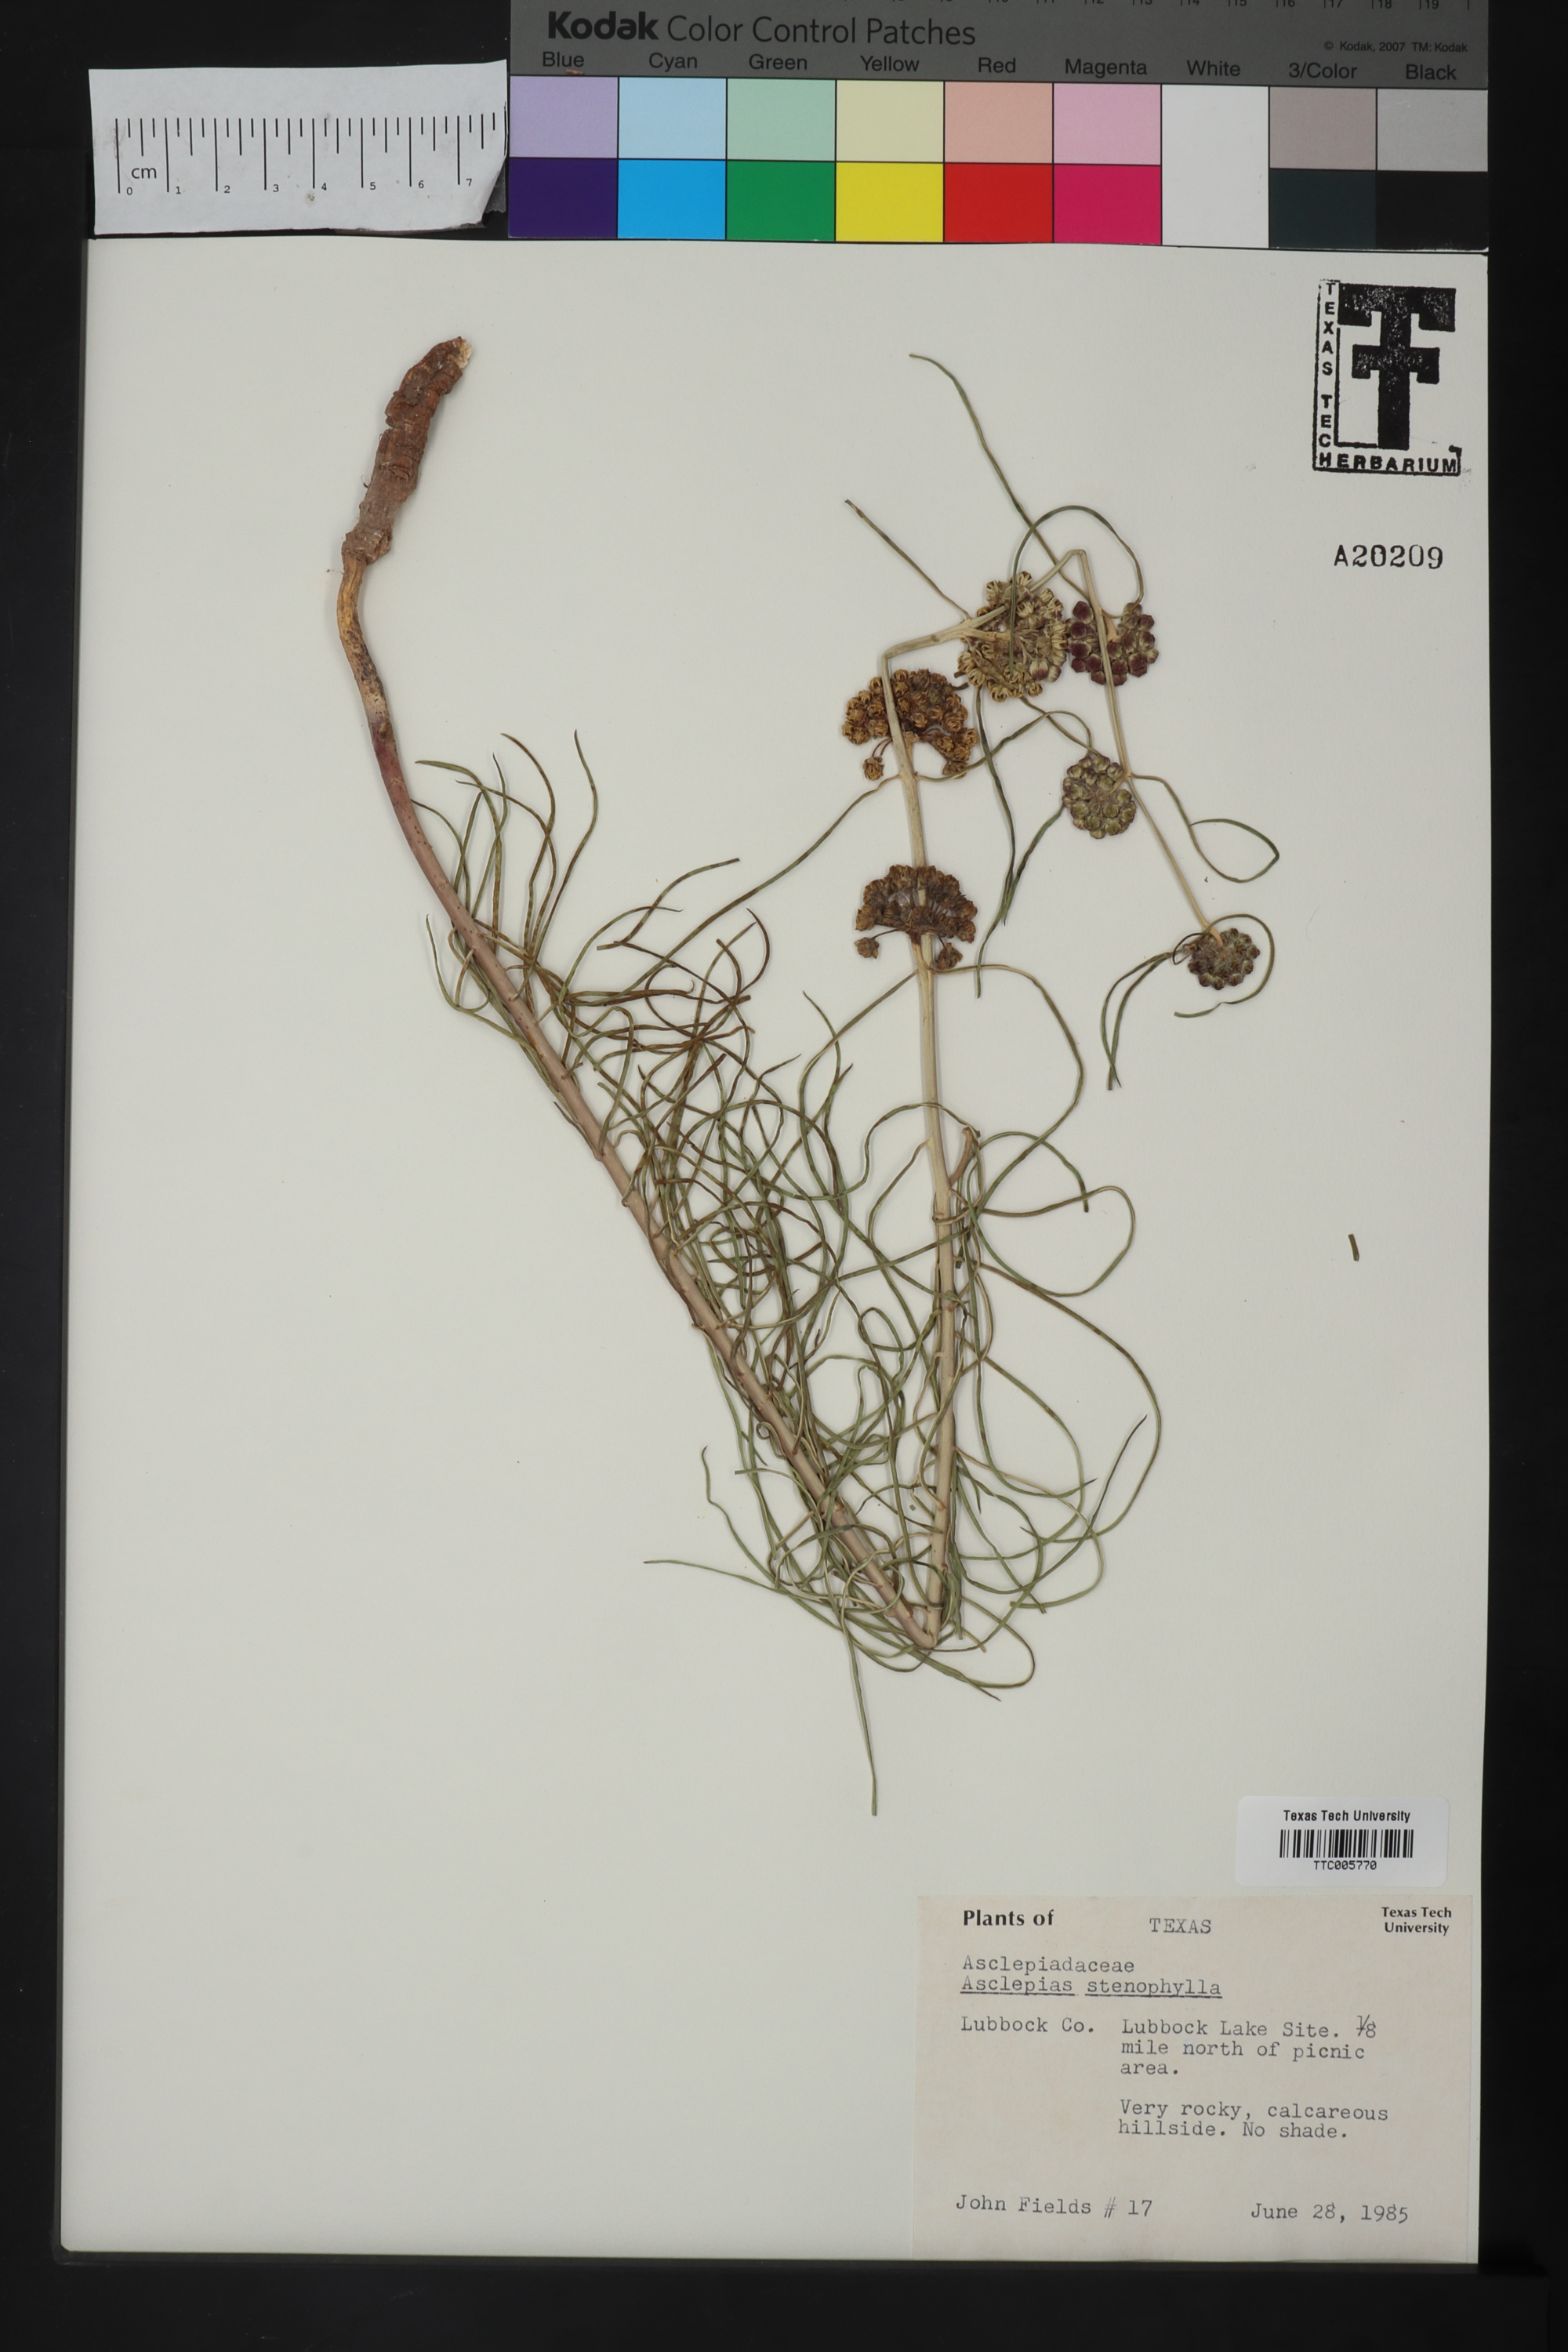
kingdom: Plantae
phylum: Tracheophyta
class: Magnoliopsida
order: Gentianales
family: Apocynaceae
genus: Asclepias
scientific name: Asclepias engelmanniana
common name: Engelmann's milkweed
